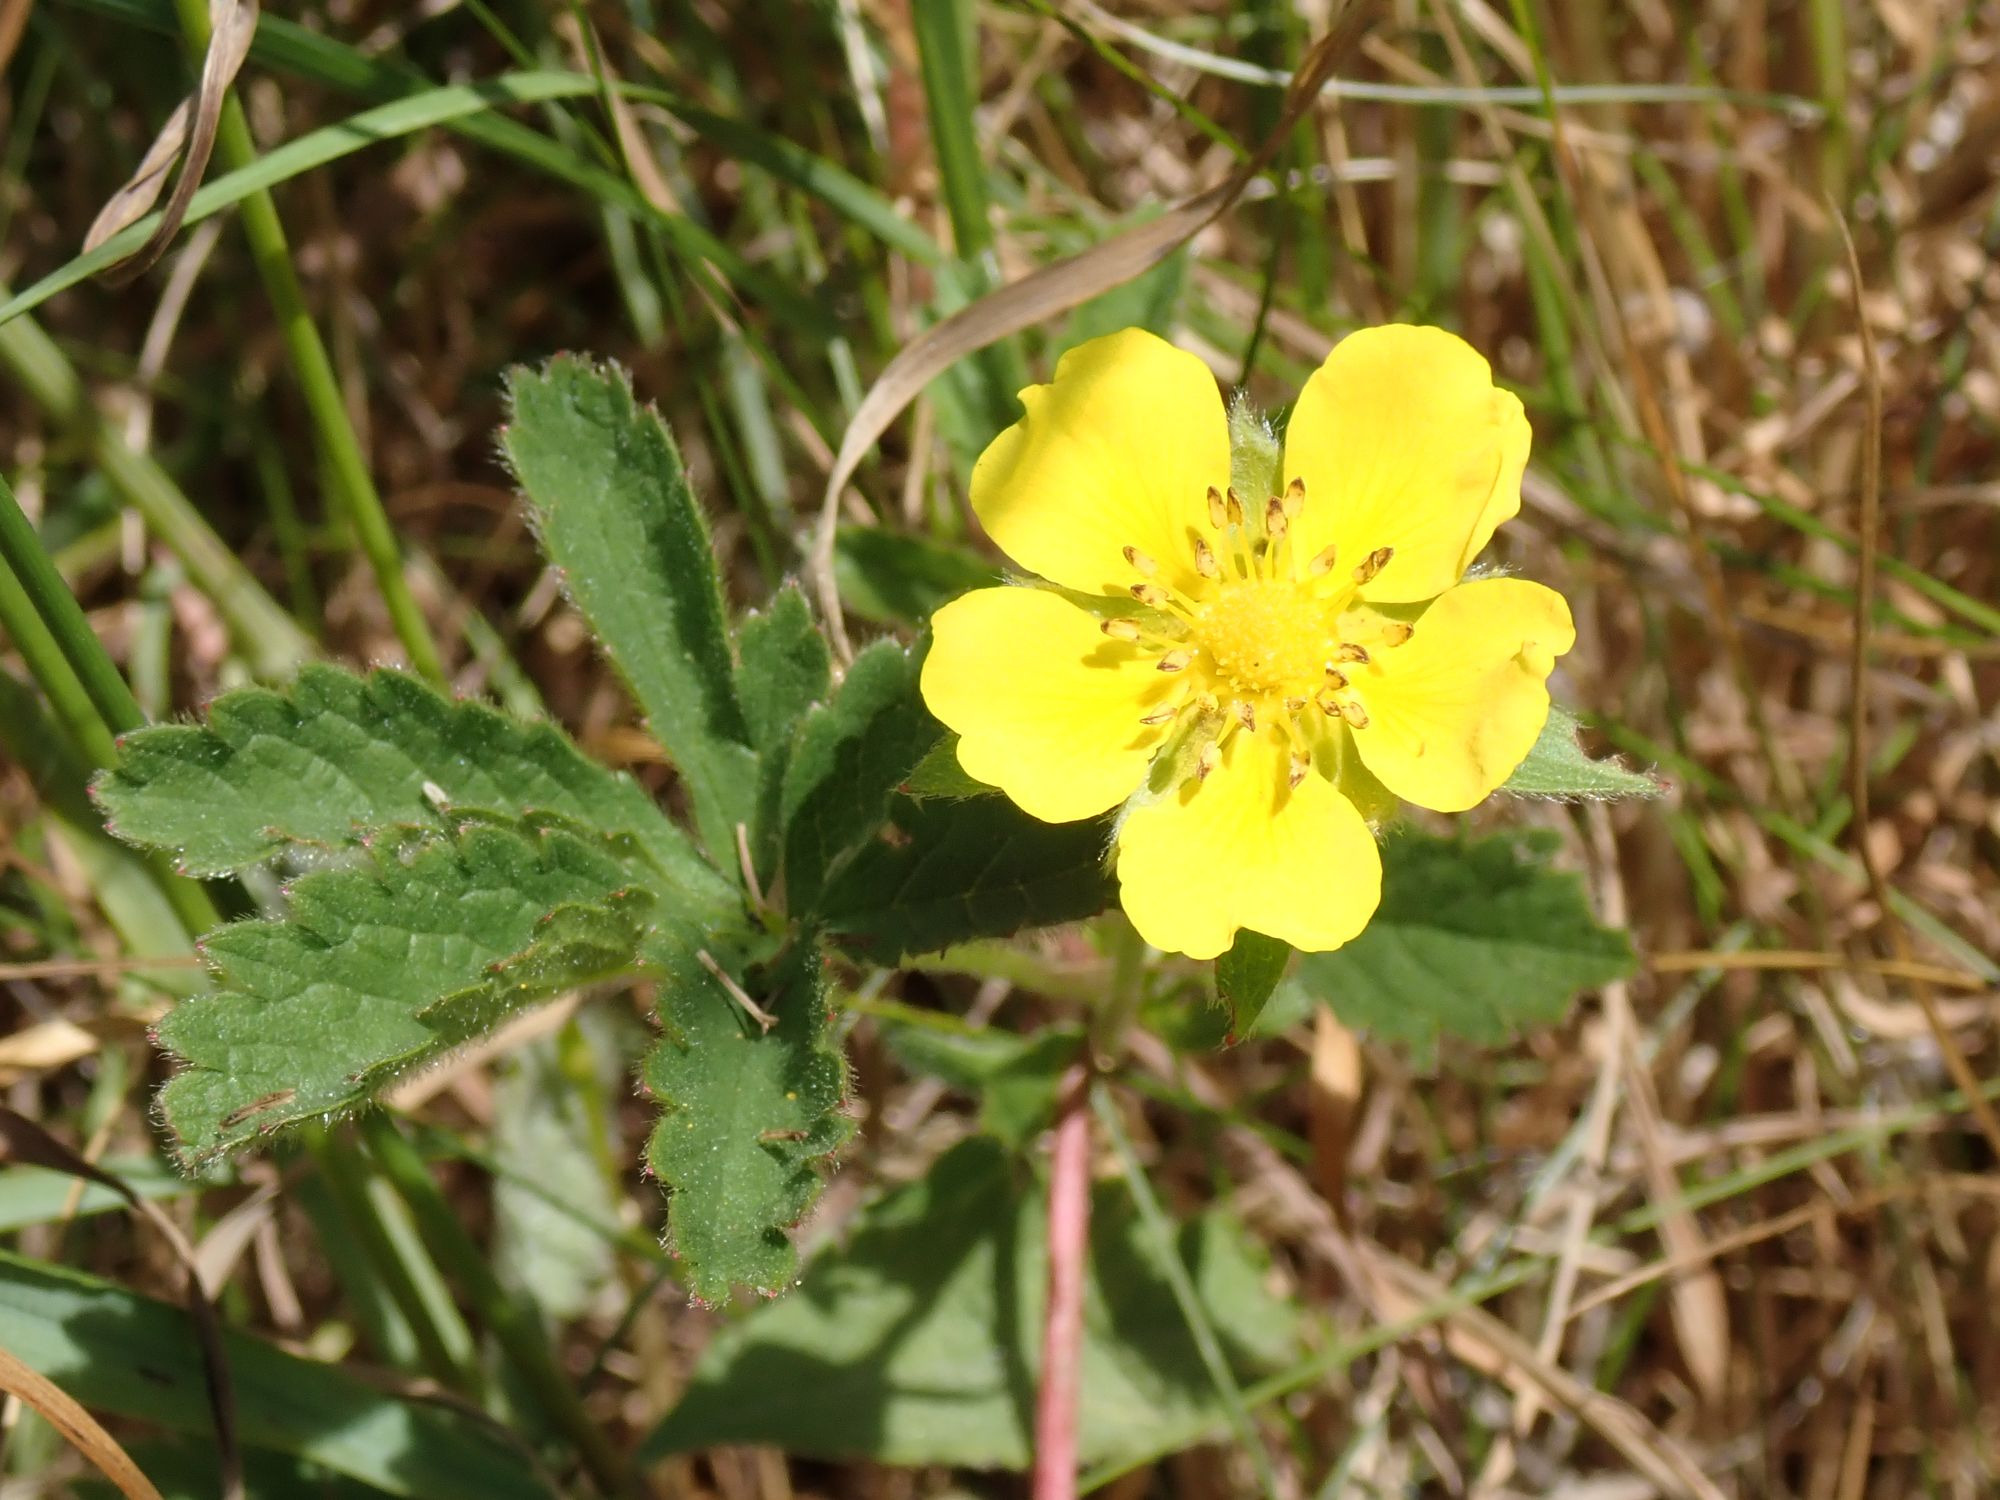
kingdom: Plantae
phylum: Tracheophyta
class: Magnoliopsida
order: Rosales
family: Rosaceae
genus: Potentilla
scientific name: Potentilla reptans
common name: Krybende potentil
